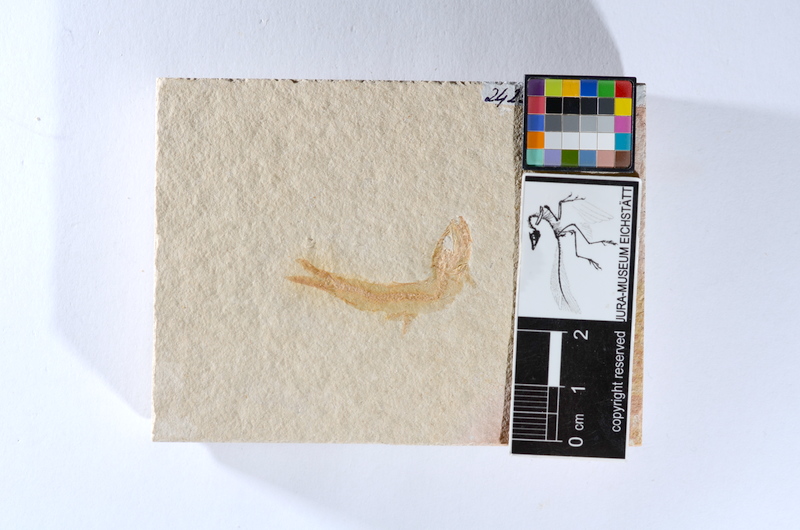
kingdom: Animalia
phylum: Chordata
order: Salmoniformes
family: Orthogonikleithridae
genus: Leptolepides
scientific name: Leptolepides sprattiformis
